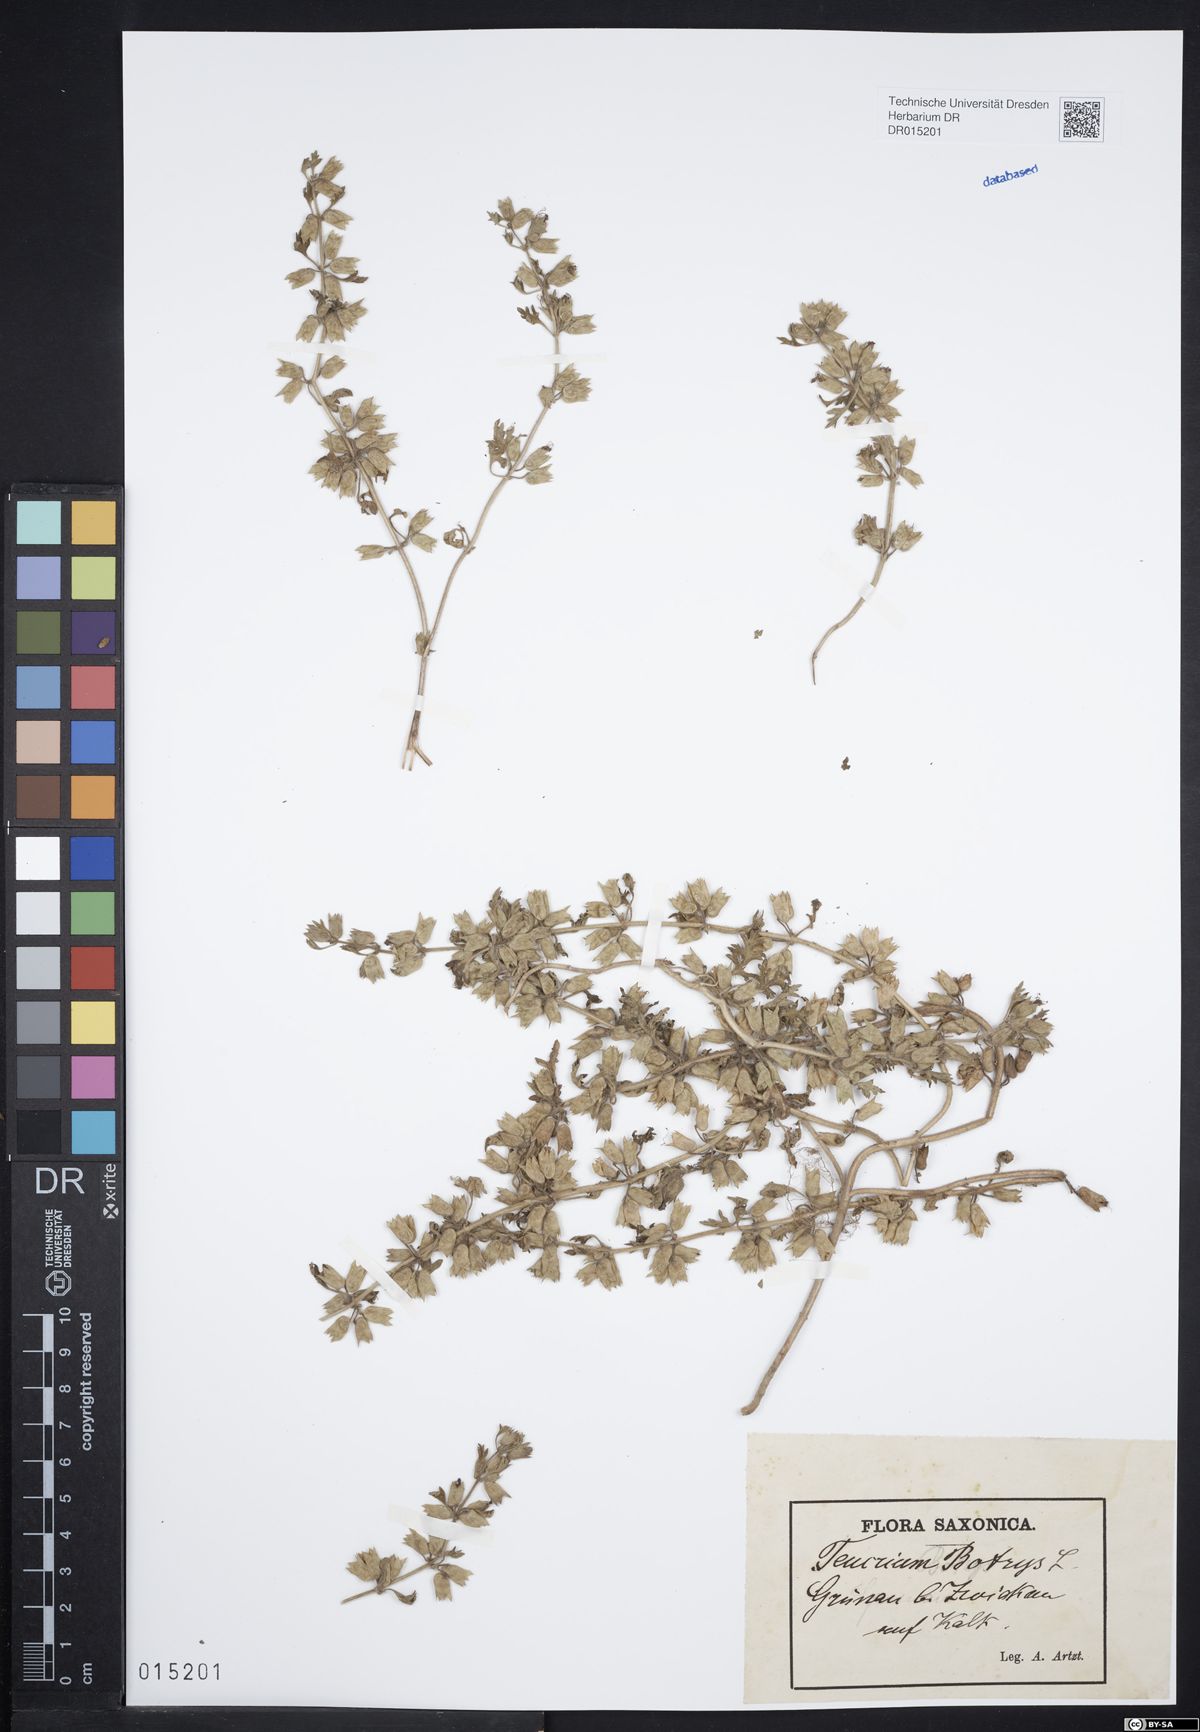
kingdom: Plantae
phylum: Tracheophyta
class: Magnoliopsida
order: Lamiales
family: Lamiaceae
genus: Teucrium
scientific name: Teucrium botrys
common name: Cut-leaved germander
